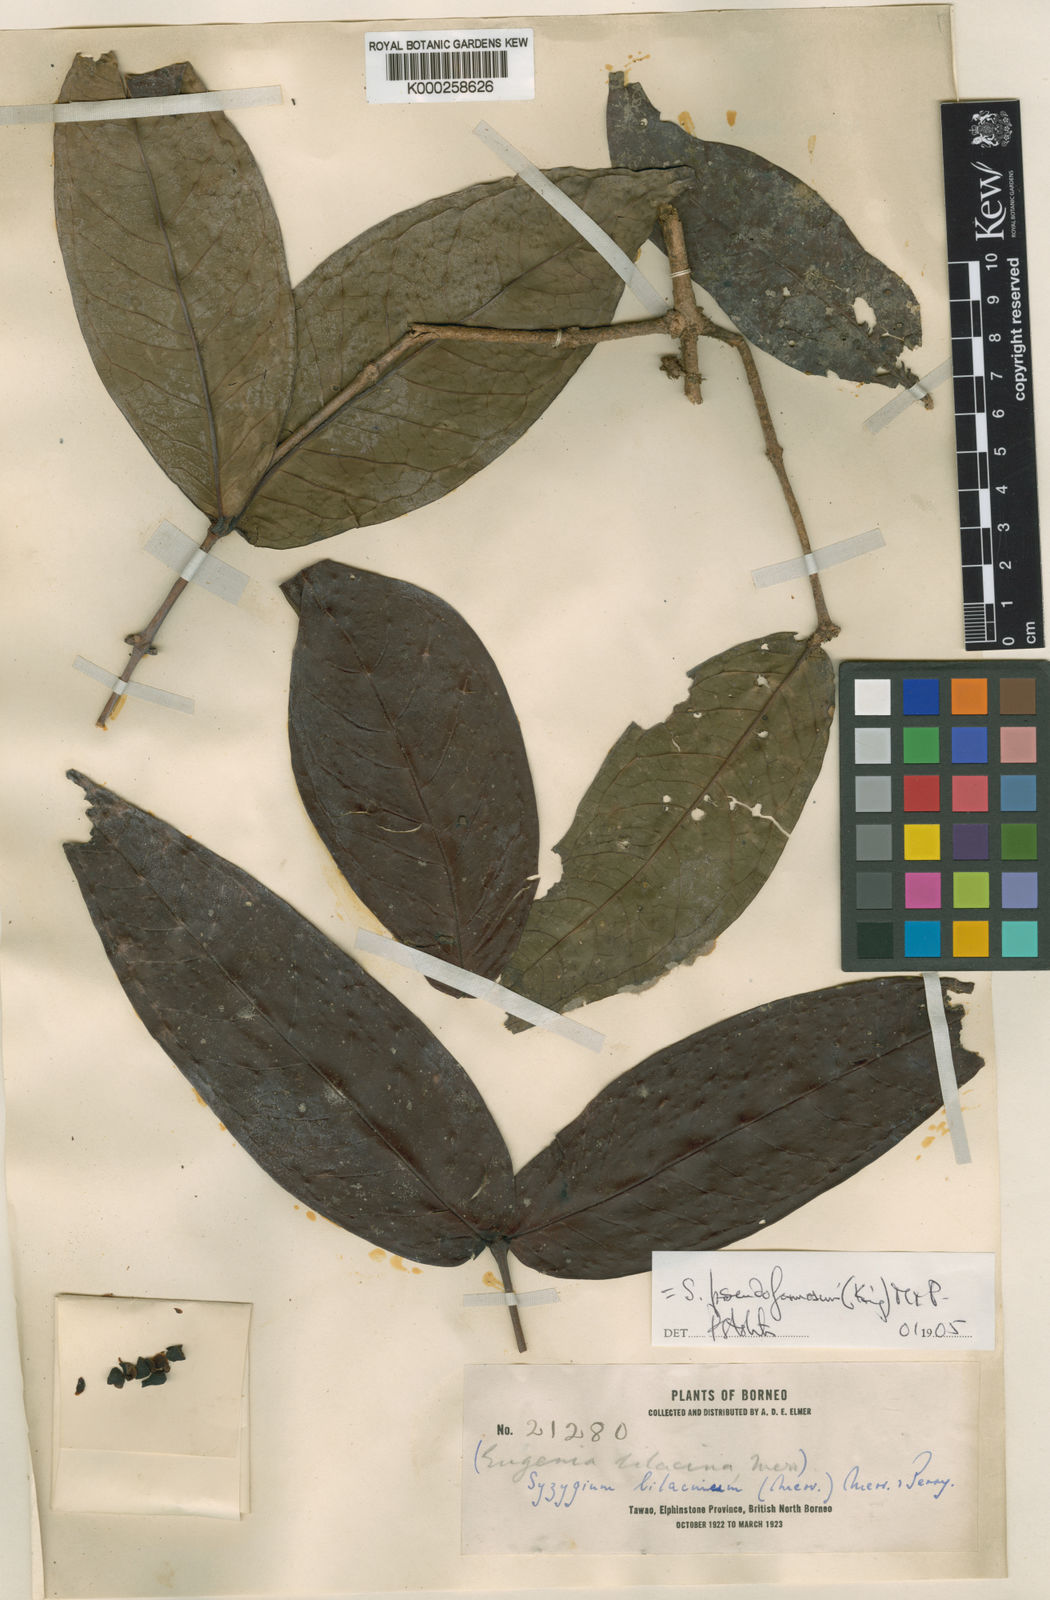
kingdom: Plantae
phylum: Tracheophyta
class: Magnoliopsida
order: Myrtales
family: Myrtaceae
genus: Syzygium
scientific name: Syzygium formosum
